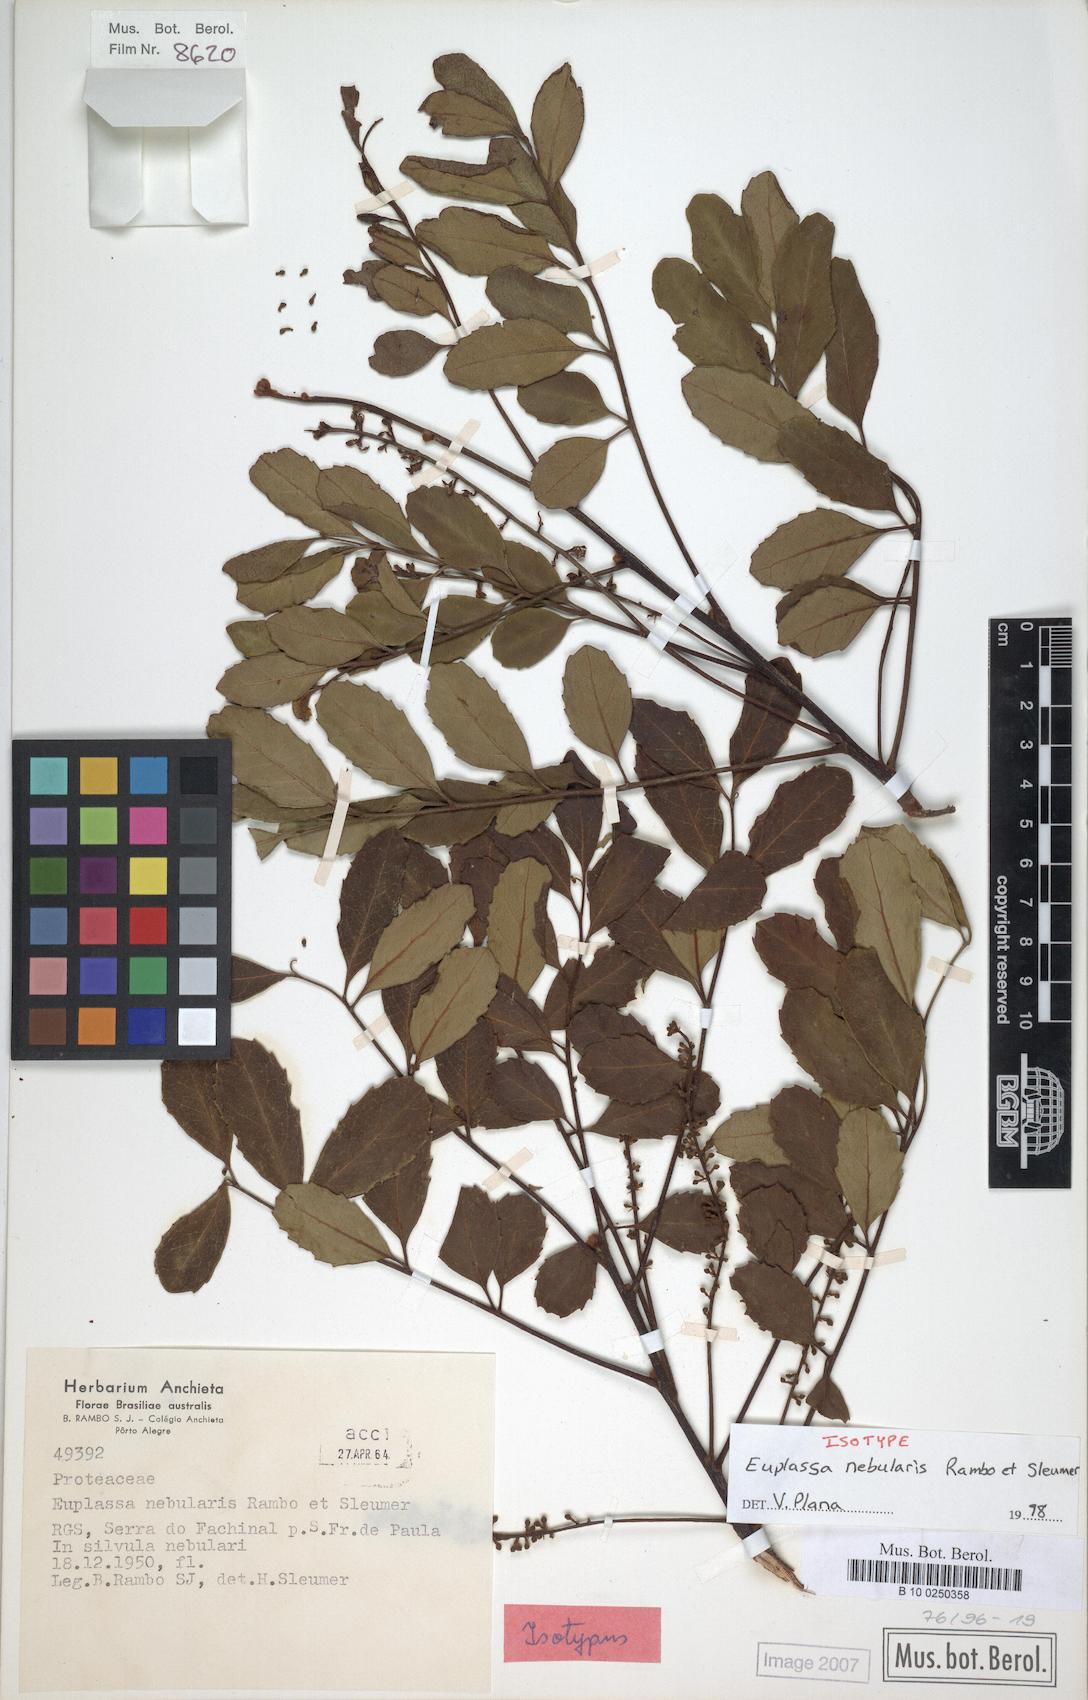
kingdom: Plantae
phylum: Tracheophyta
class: Magnoliopsida
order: Proteales
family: Proteaceae
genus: Euplassa
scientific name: Euplassa nebularis
